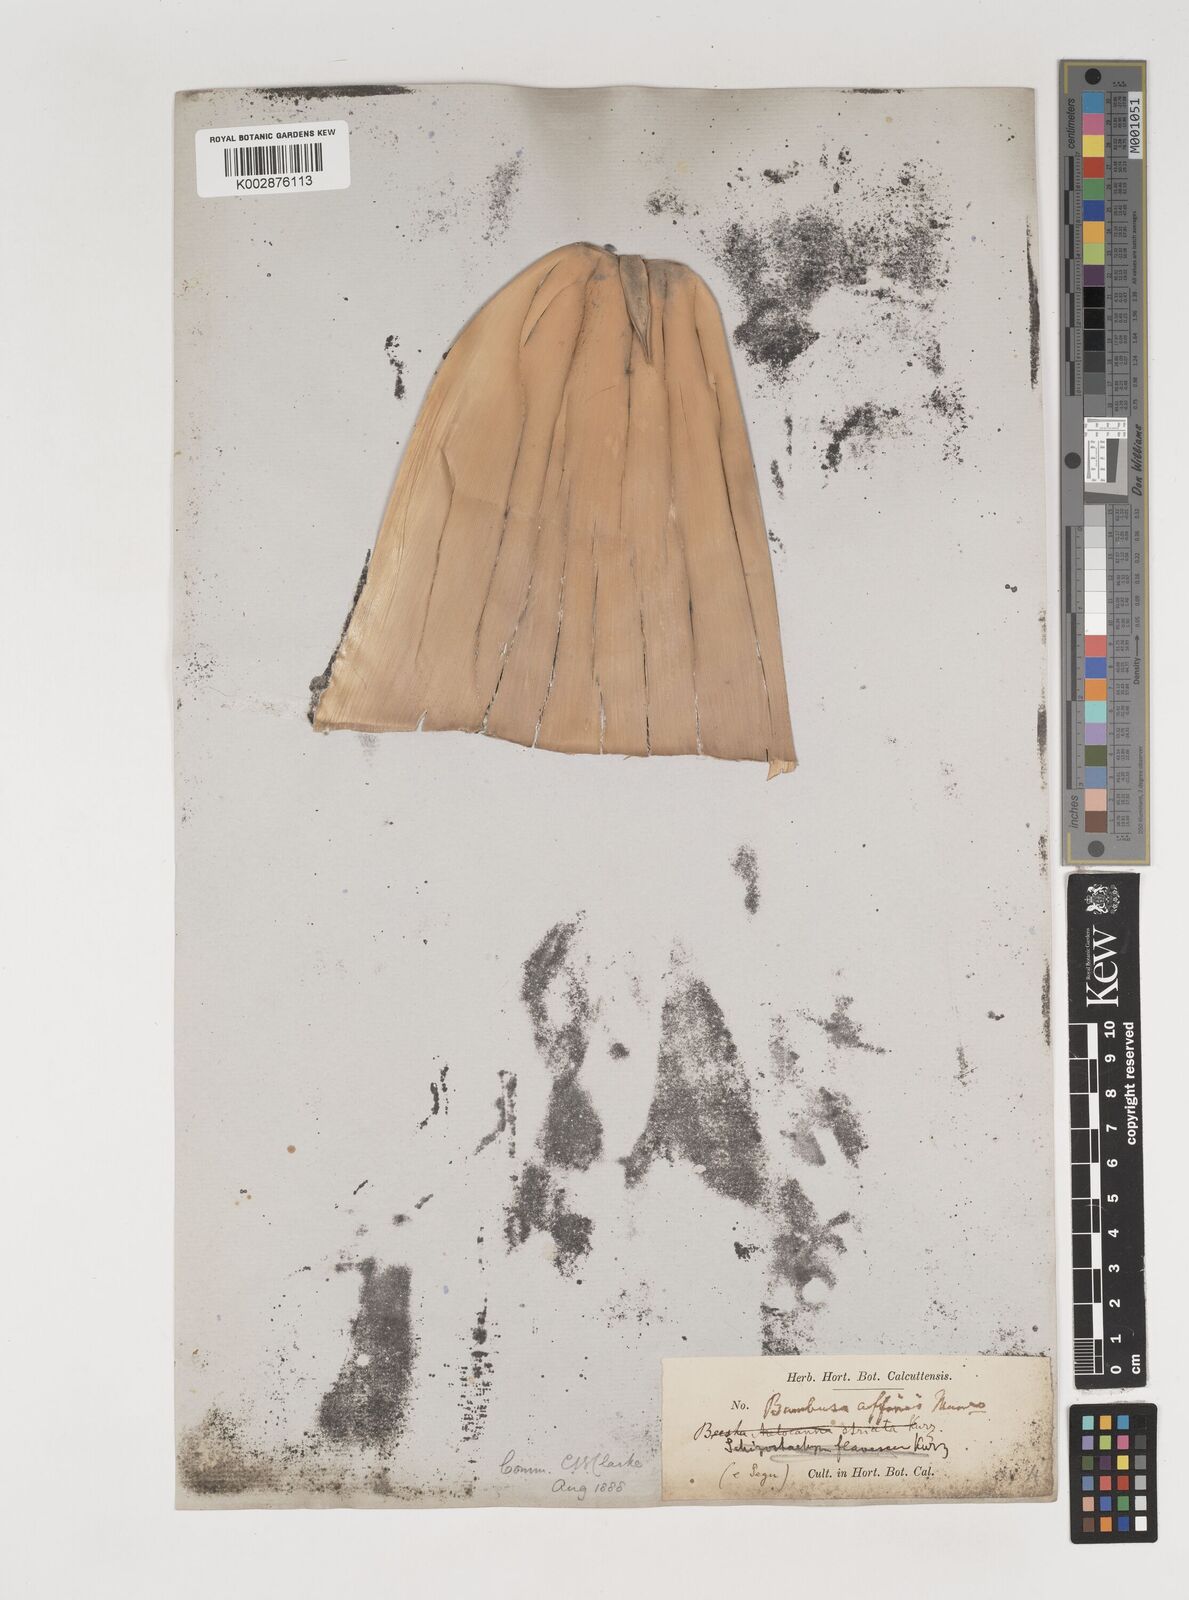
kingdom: Plantae
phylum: Tracheophyta
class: Liliopsida
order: Poales
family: Poaceae
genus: Bambusa
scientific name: Bambusa affinis
